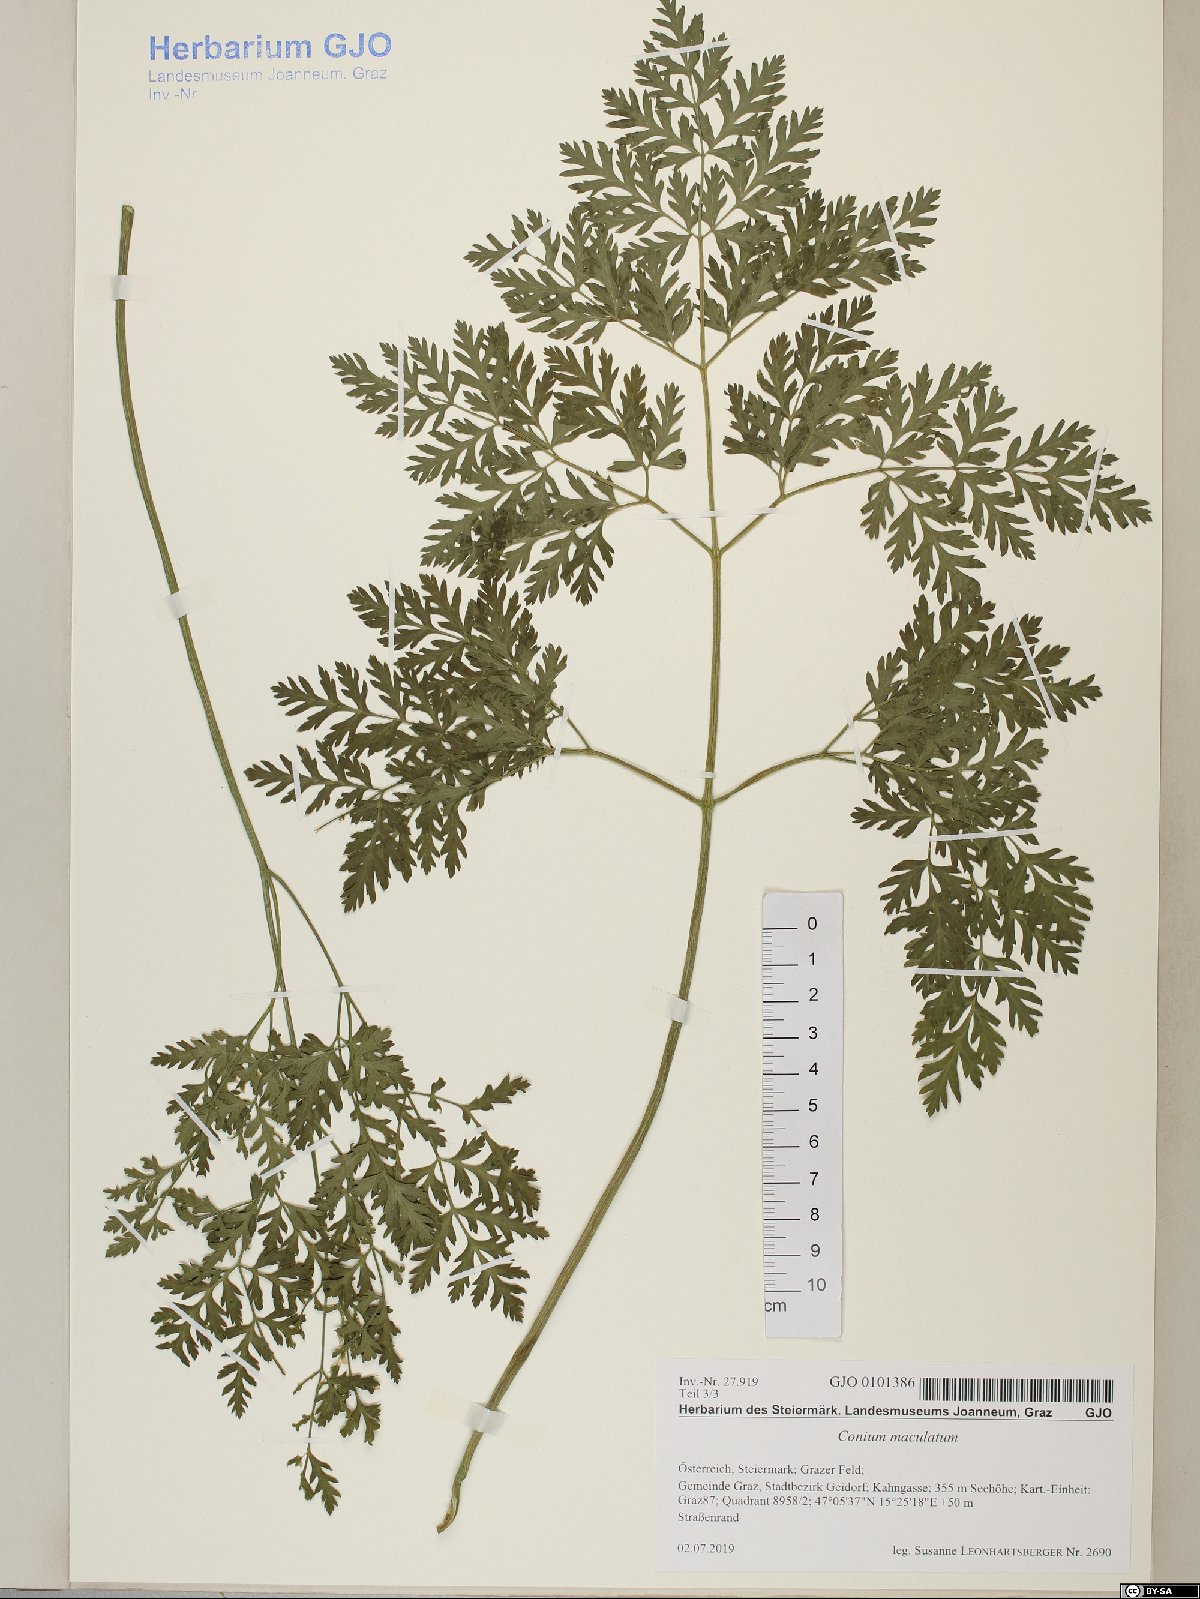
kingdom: Plantae
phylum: Tracheophyta
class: Magnoliopsida
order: Apiales
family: Apiaceae
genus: Conium
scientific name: Conium maculatum
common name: Hemlock
